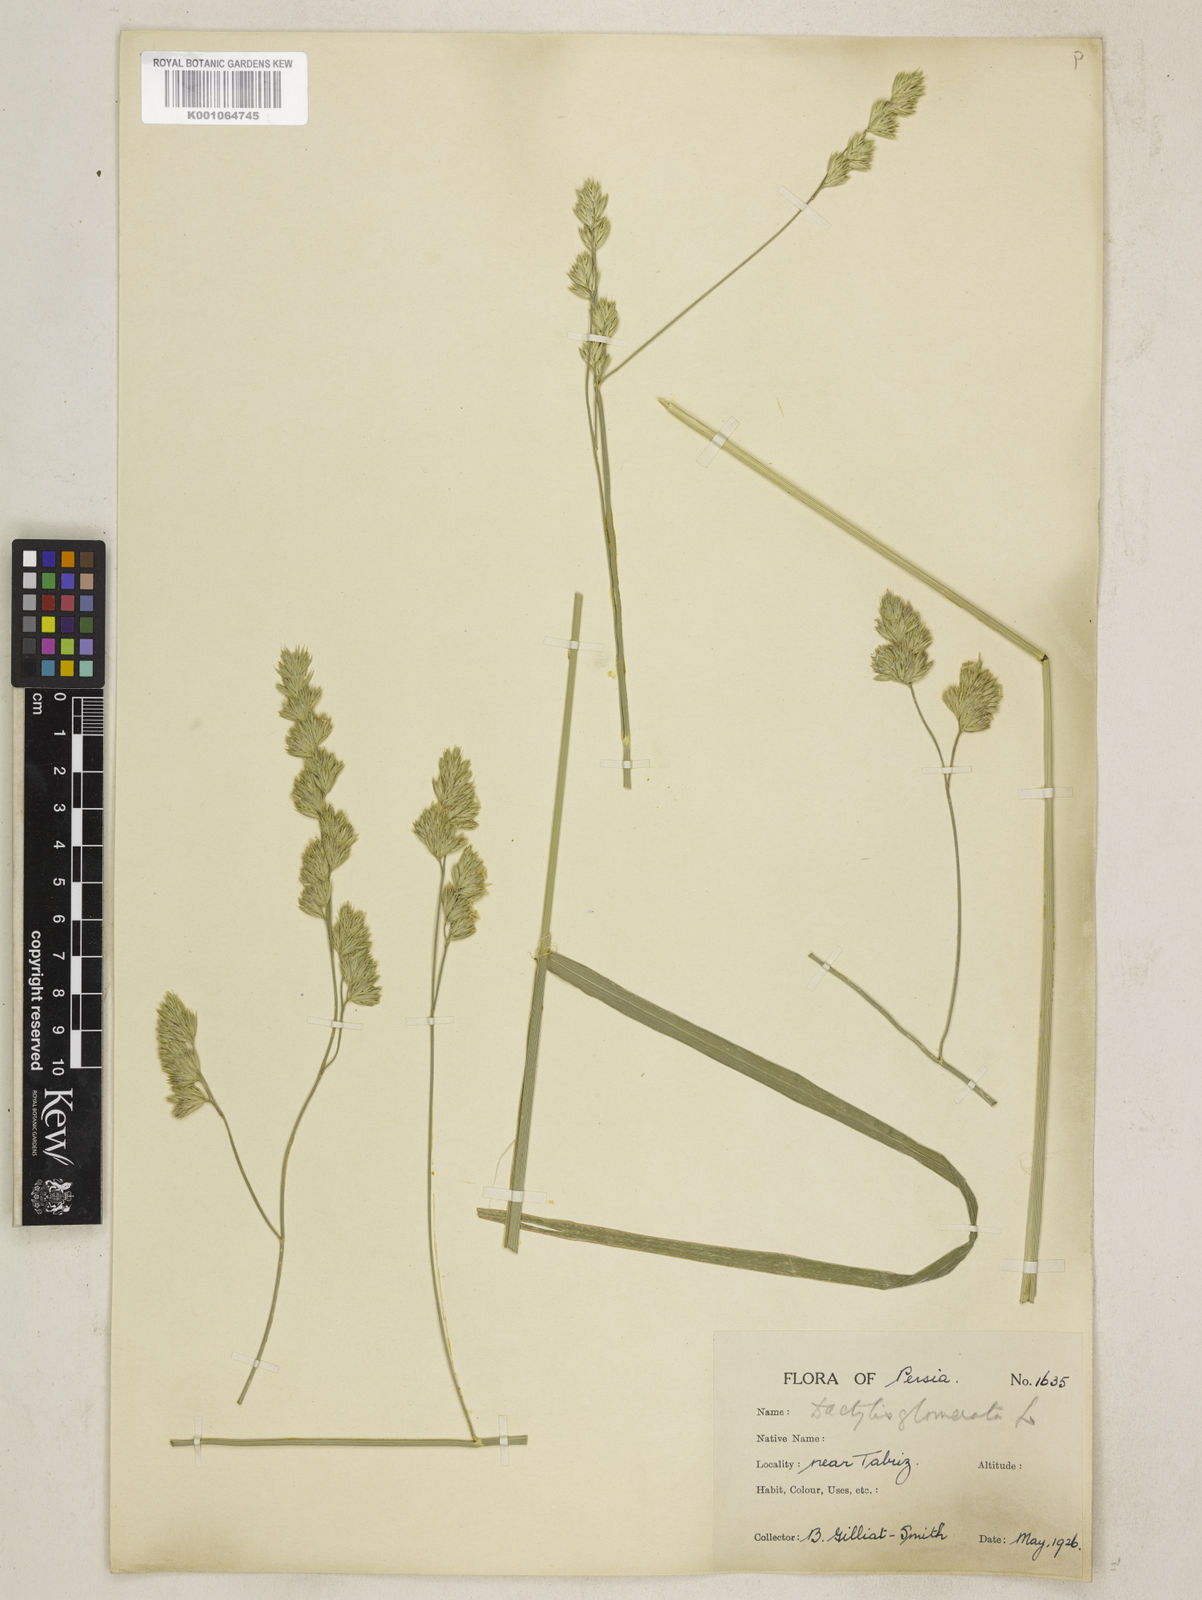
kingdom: Plantae
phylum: Tracheophyta
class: Liliopsida
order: Poales
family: Poaceae
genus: Dactylis
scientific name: Dactylis glomerata
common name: Orchardgrass
